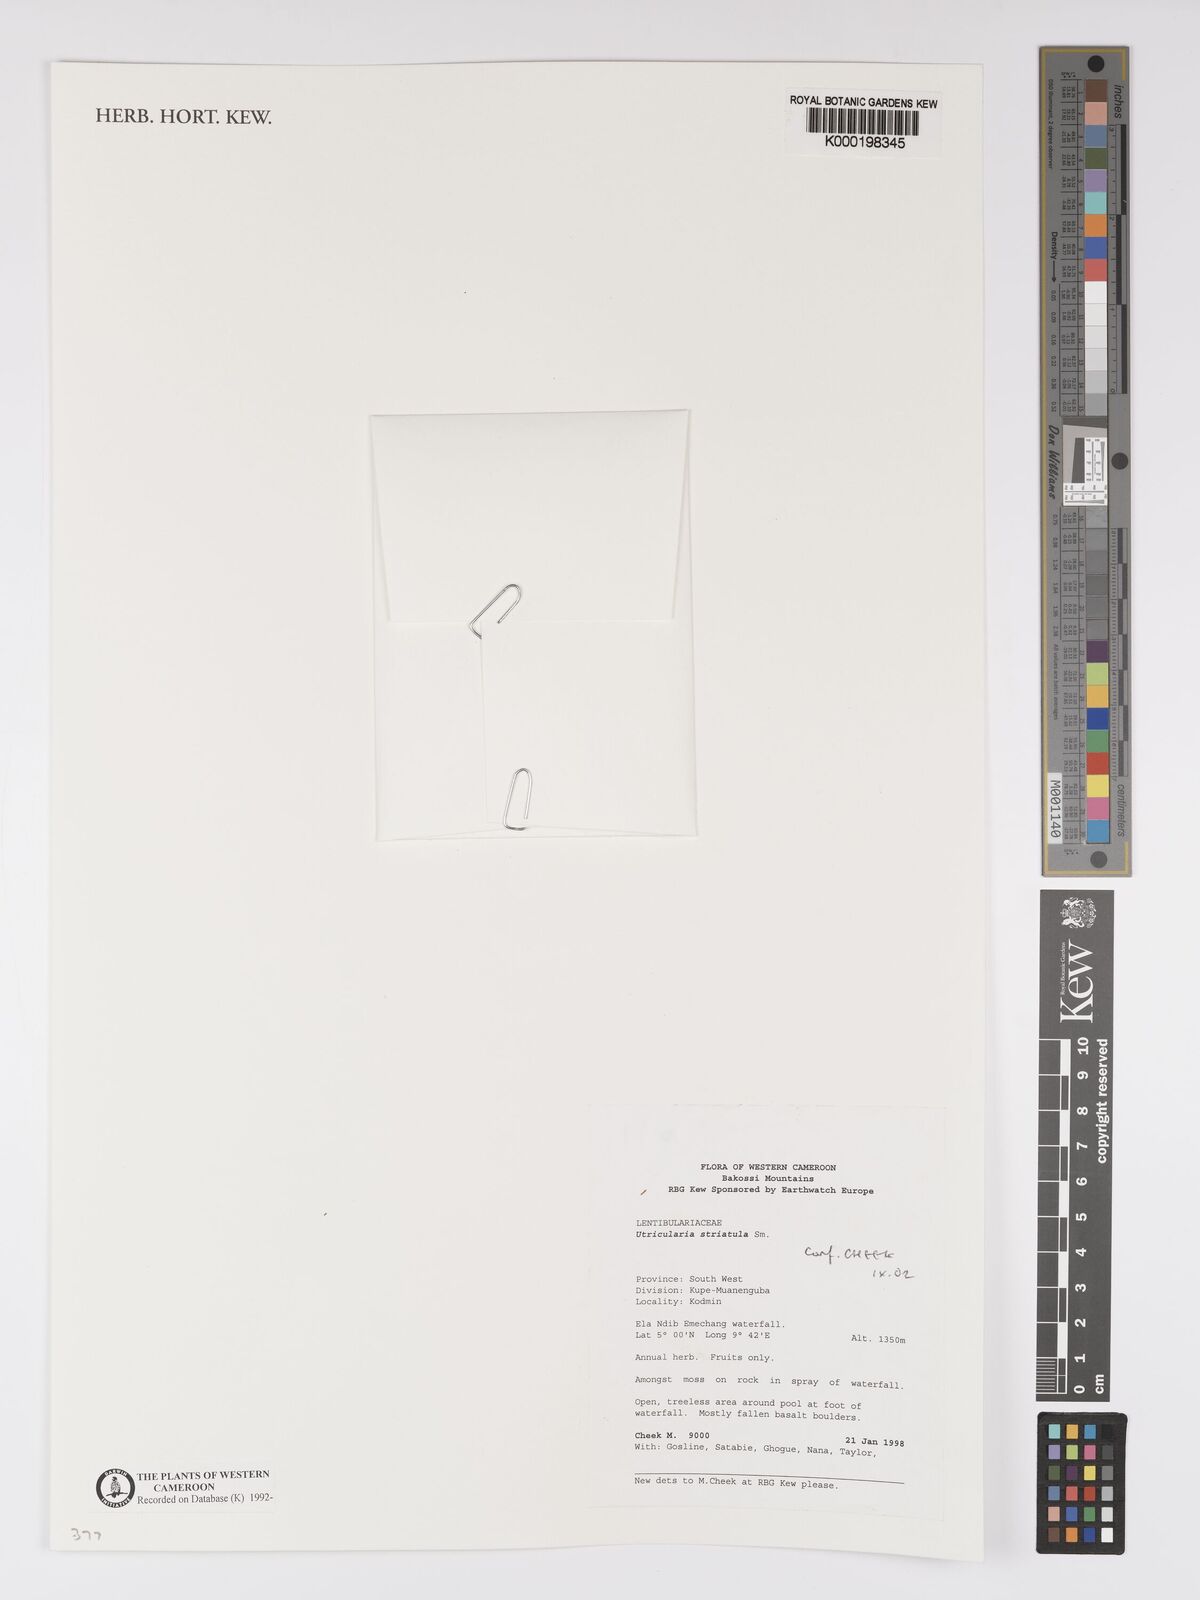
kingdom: Plantae
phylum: Tracheophyta
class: Magnoliopsida
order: Lamiales
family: Lentibulariaceae
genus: Utricularia
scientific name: Utricularia striatula
